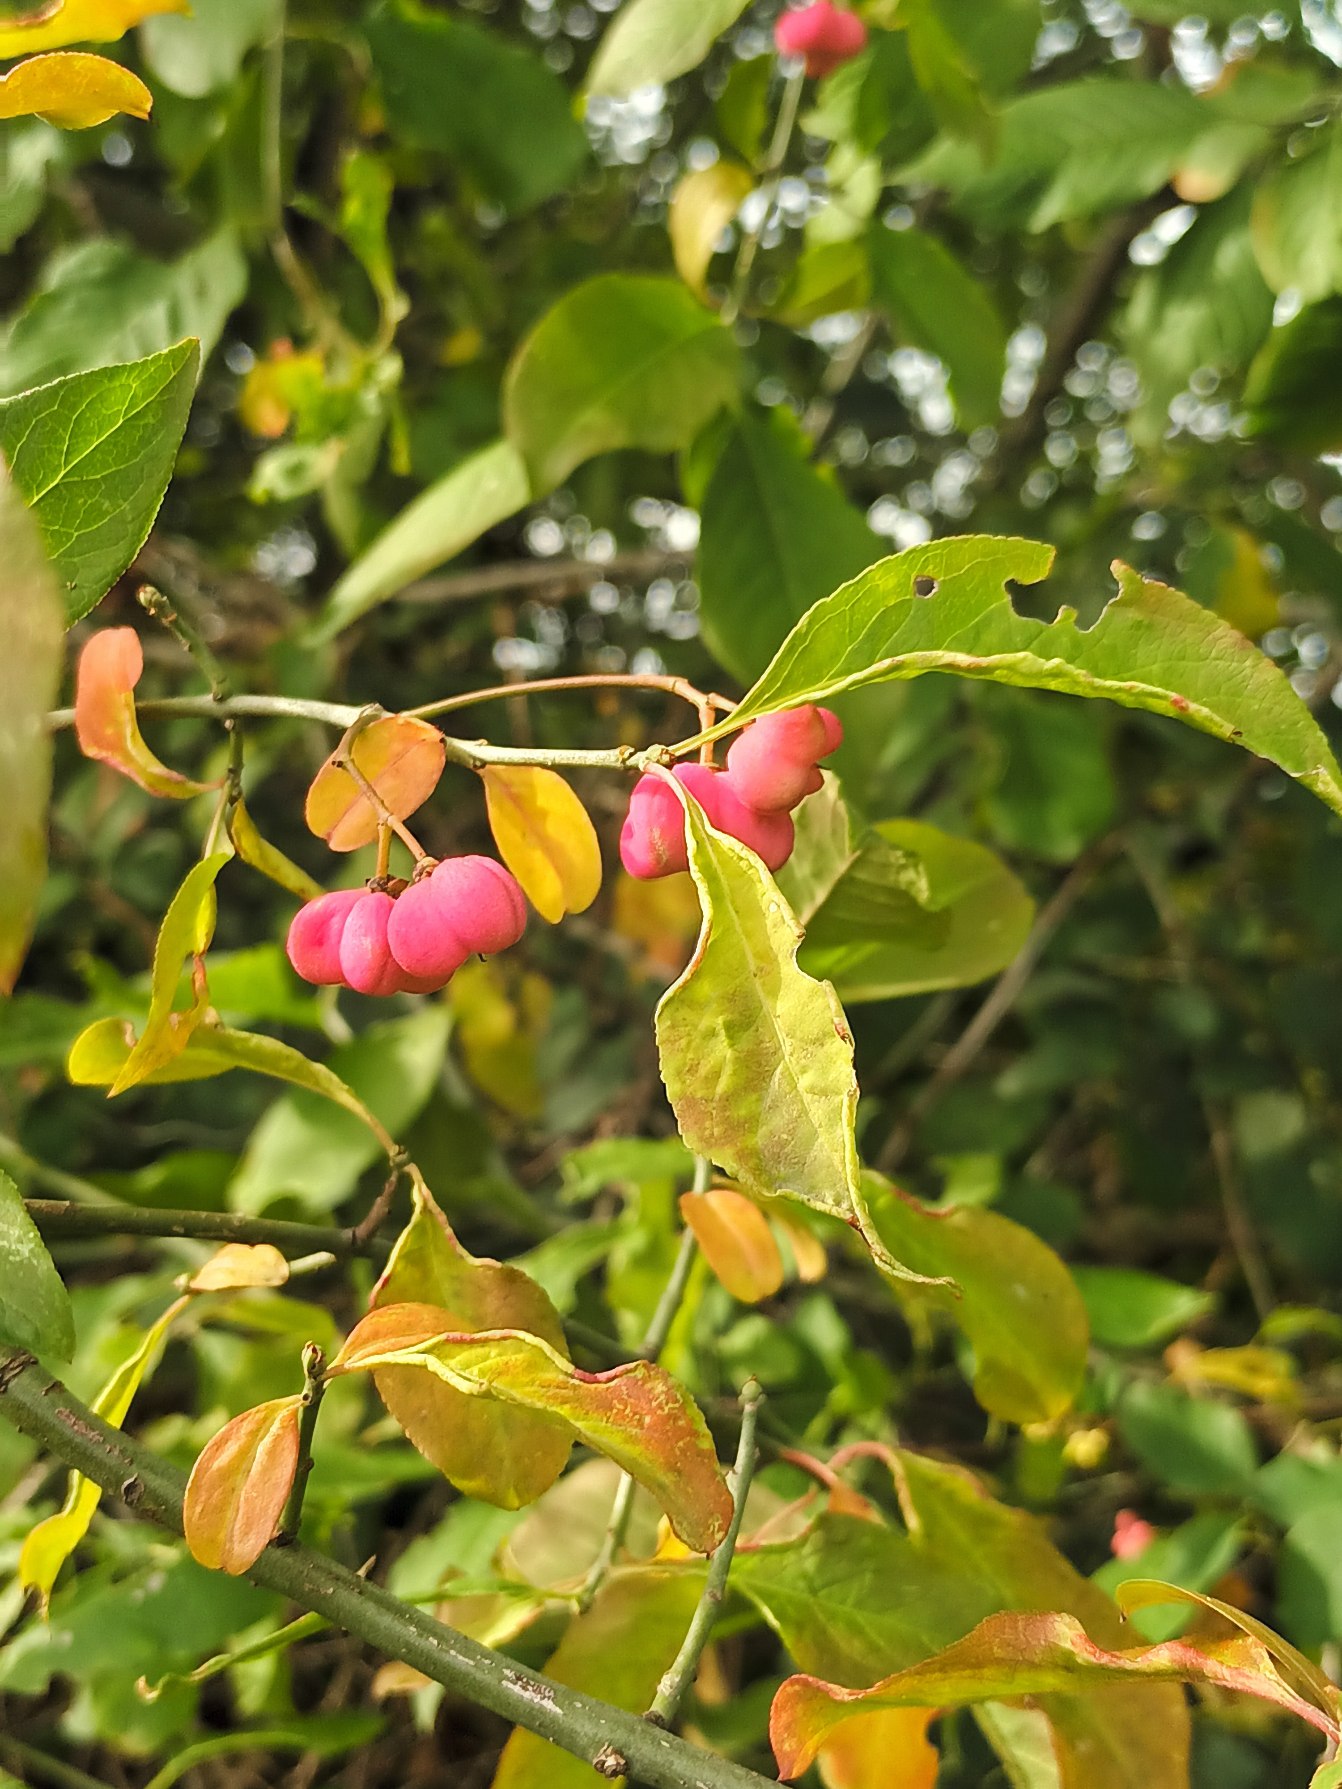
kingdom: Plantae
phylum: Tracheophyta
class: Magnoliopsida
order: Celastrales
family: Celastraceae
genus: Euonymus
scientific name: Euonymus europaeus
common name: Benved
